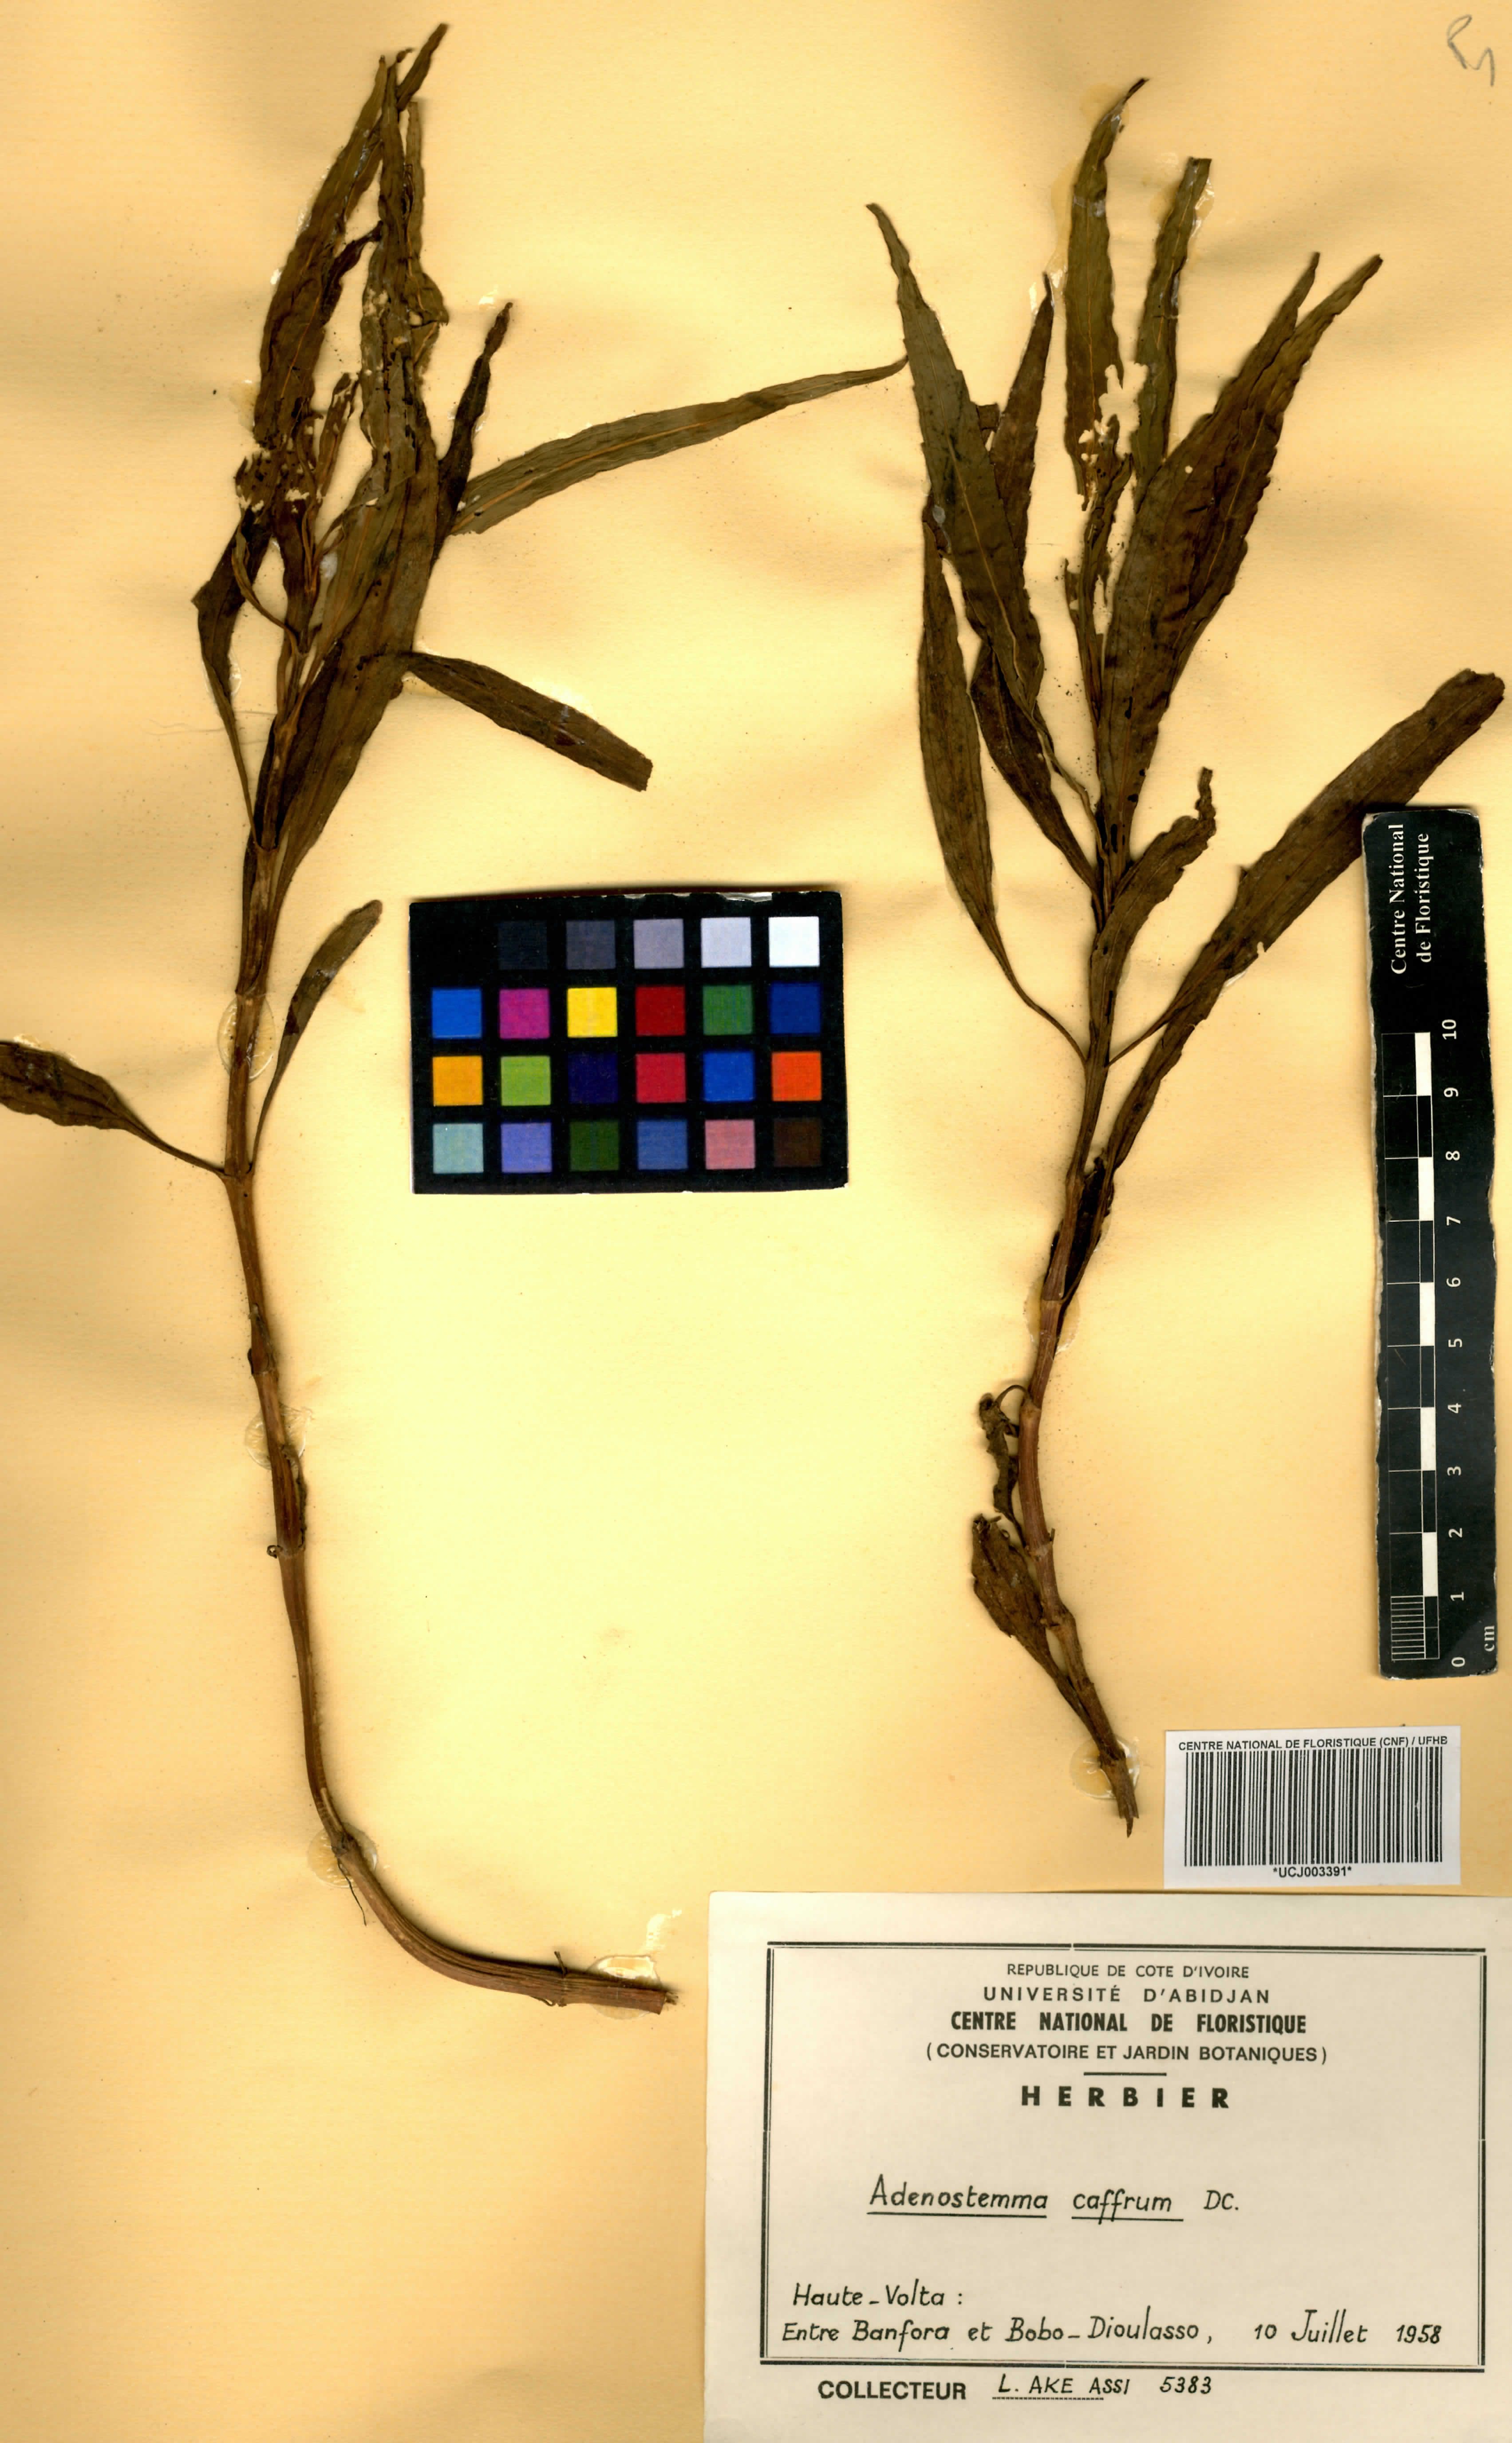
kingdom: Plantae
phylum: Tracheophyta
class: Magnoliopsida
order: Asterales
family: Asteraceae
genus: Adenostemma
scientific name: Adenostemma caffrum
